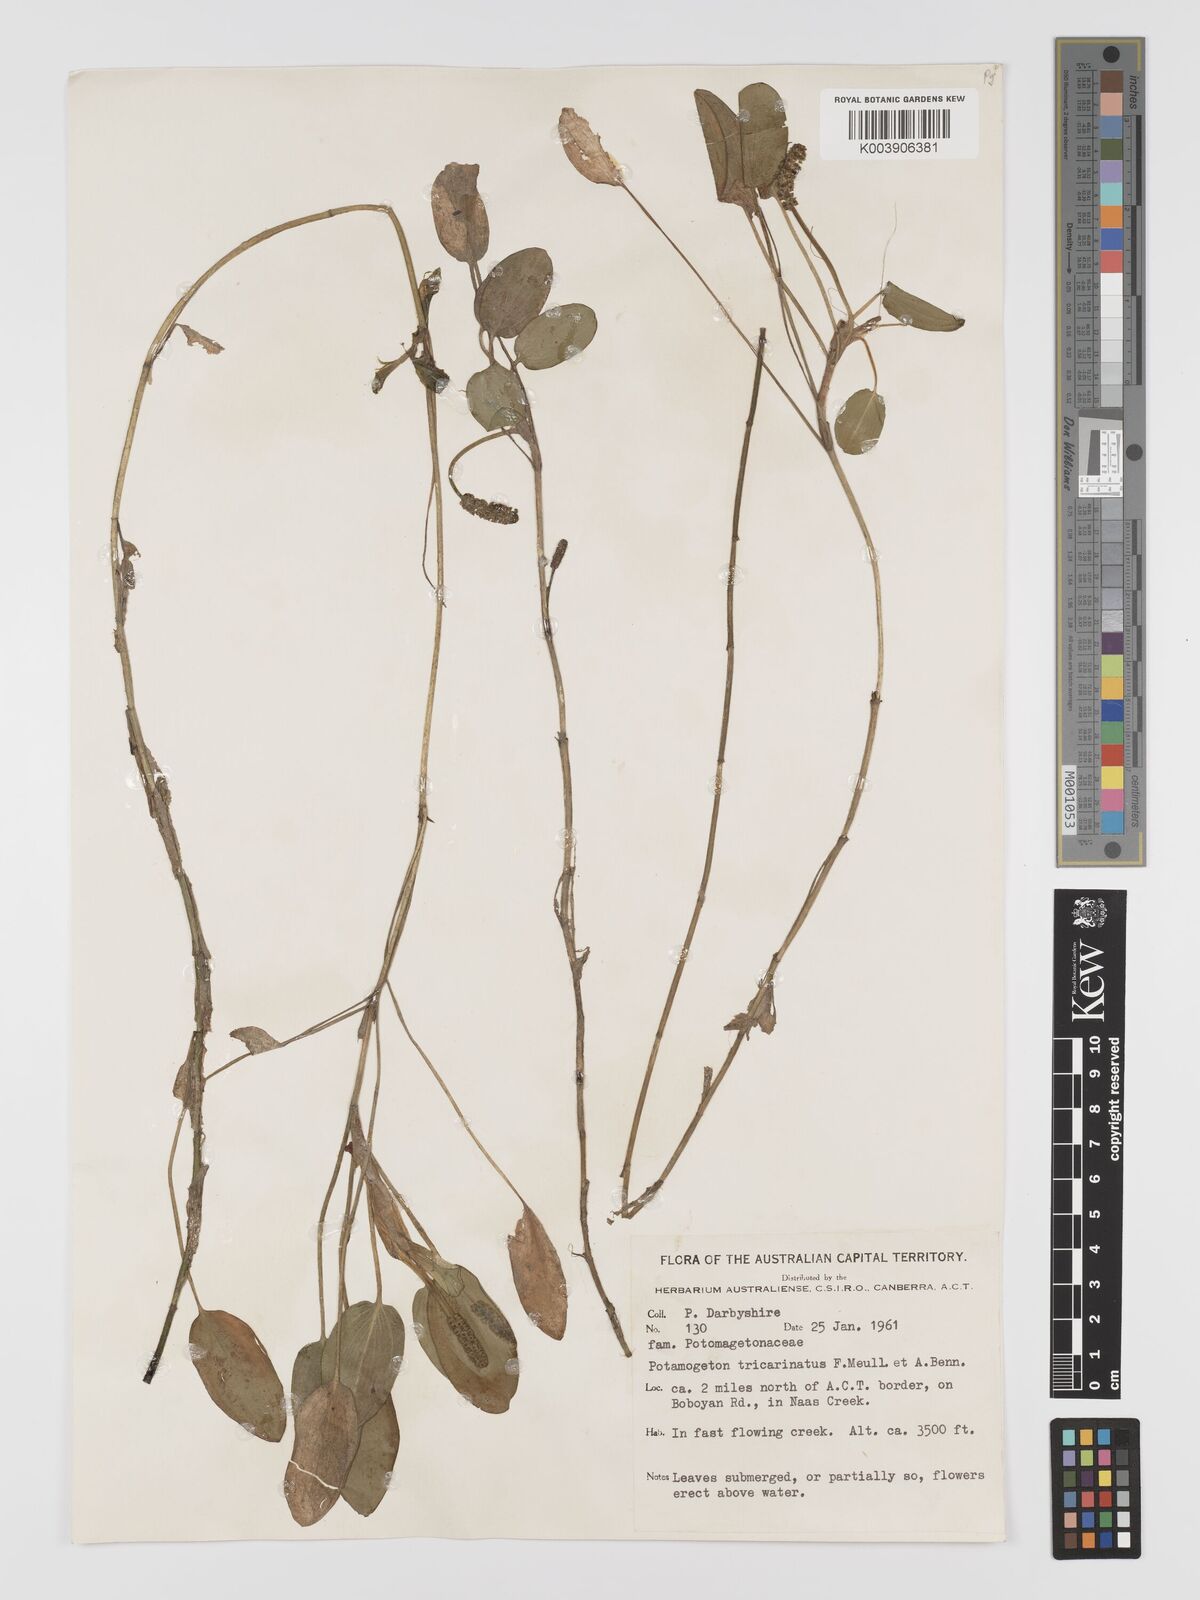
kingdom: Plantae
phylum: Tracheophyta
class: Liliopsida
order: Alismatales
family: Potamogetonaceae
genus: Potamogeton
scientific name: Potamogeton tricarinatus
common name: Pondweed
